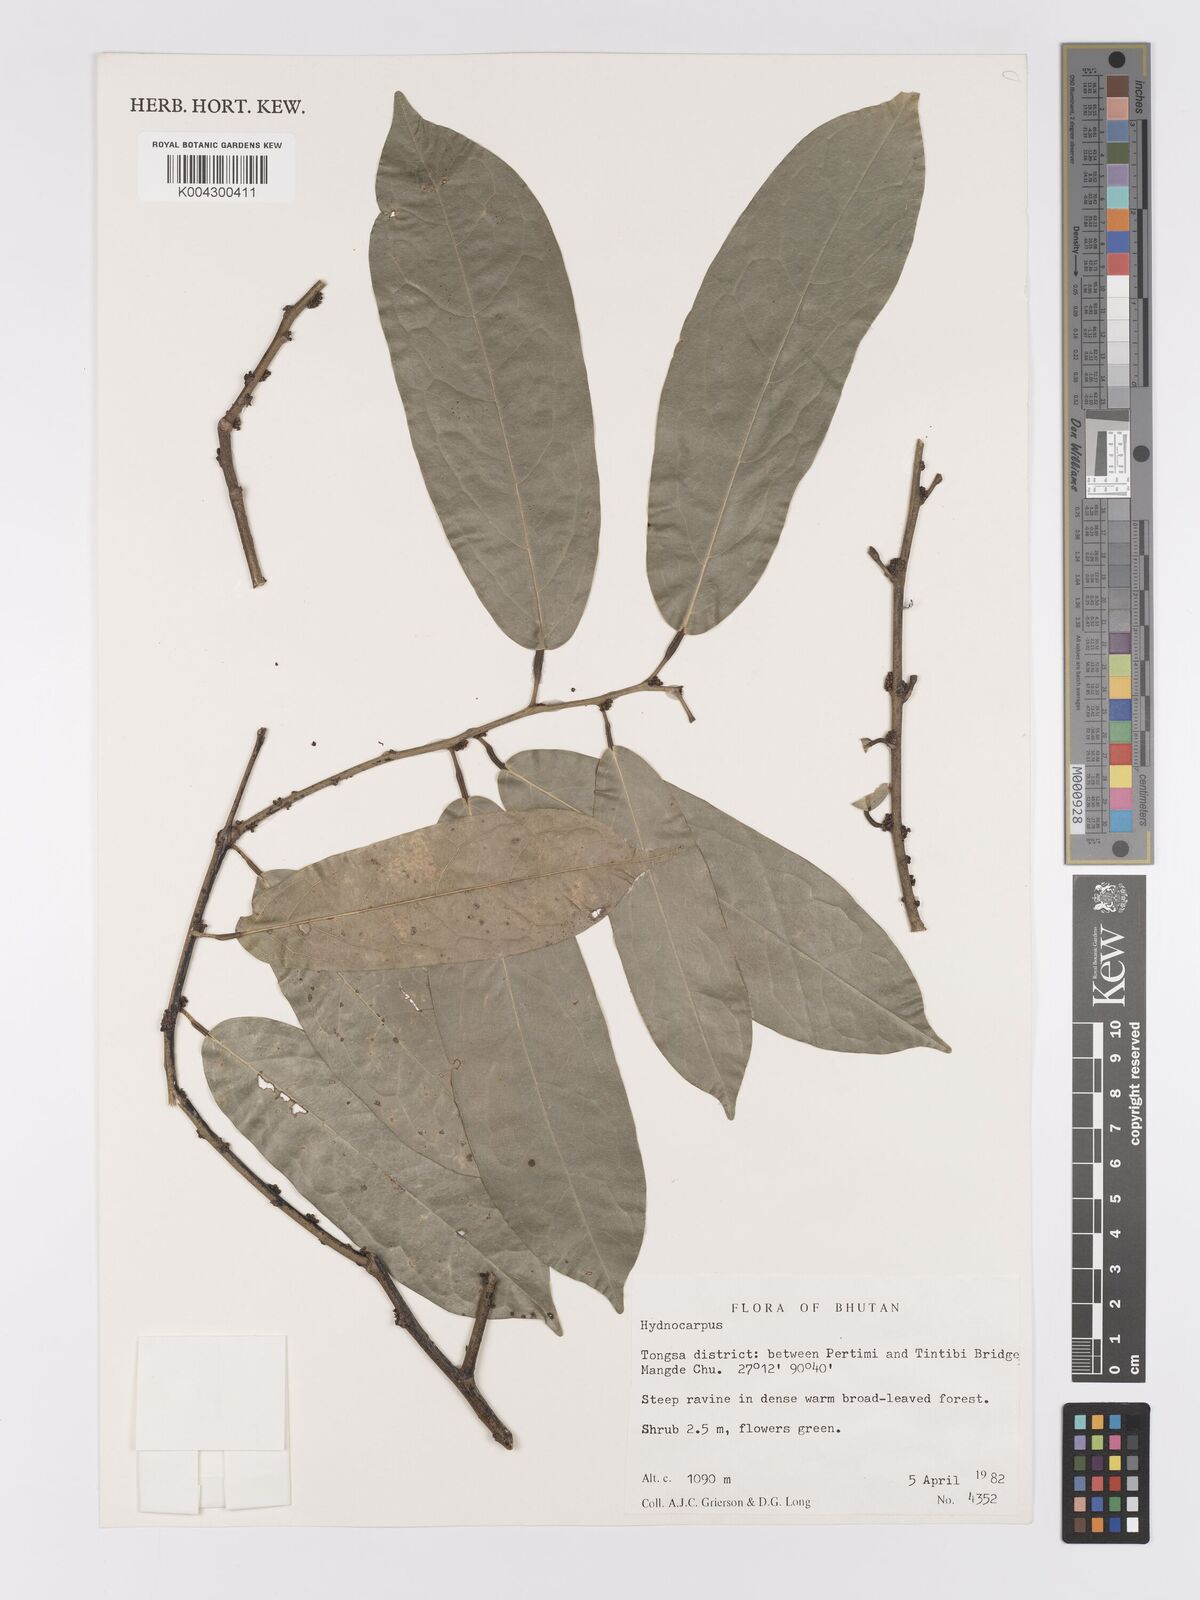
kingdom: Plantae
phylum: Tracheophyta
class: Magnoliopsida
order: Malpighiales
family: Achariaceae
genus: Hydnocarpus
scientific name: Hydnocarpus
